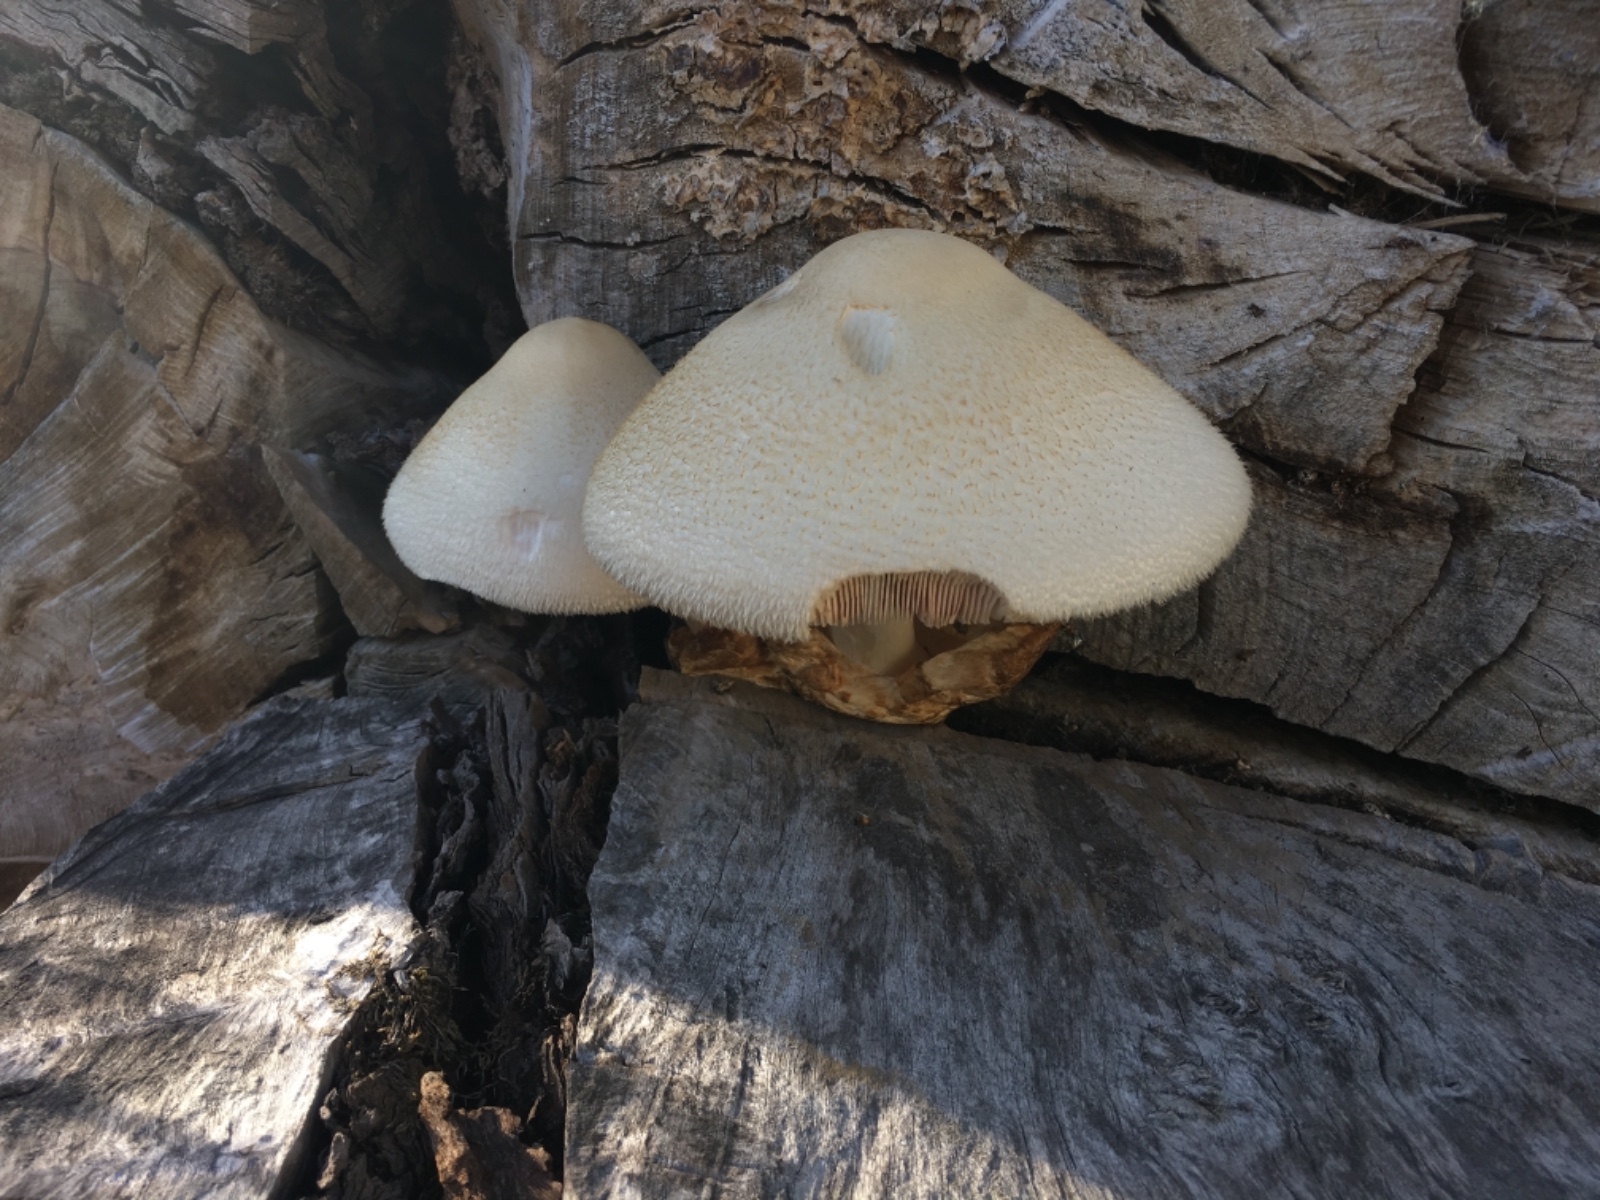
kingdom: Fungi
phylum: Basidiomycota
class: Agaricomycetes
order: Agaricales
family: Pluteaceae
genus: Volvariella
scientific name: Volvariella bombycina
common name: silkehåret posesvamp
